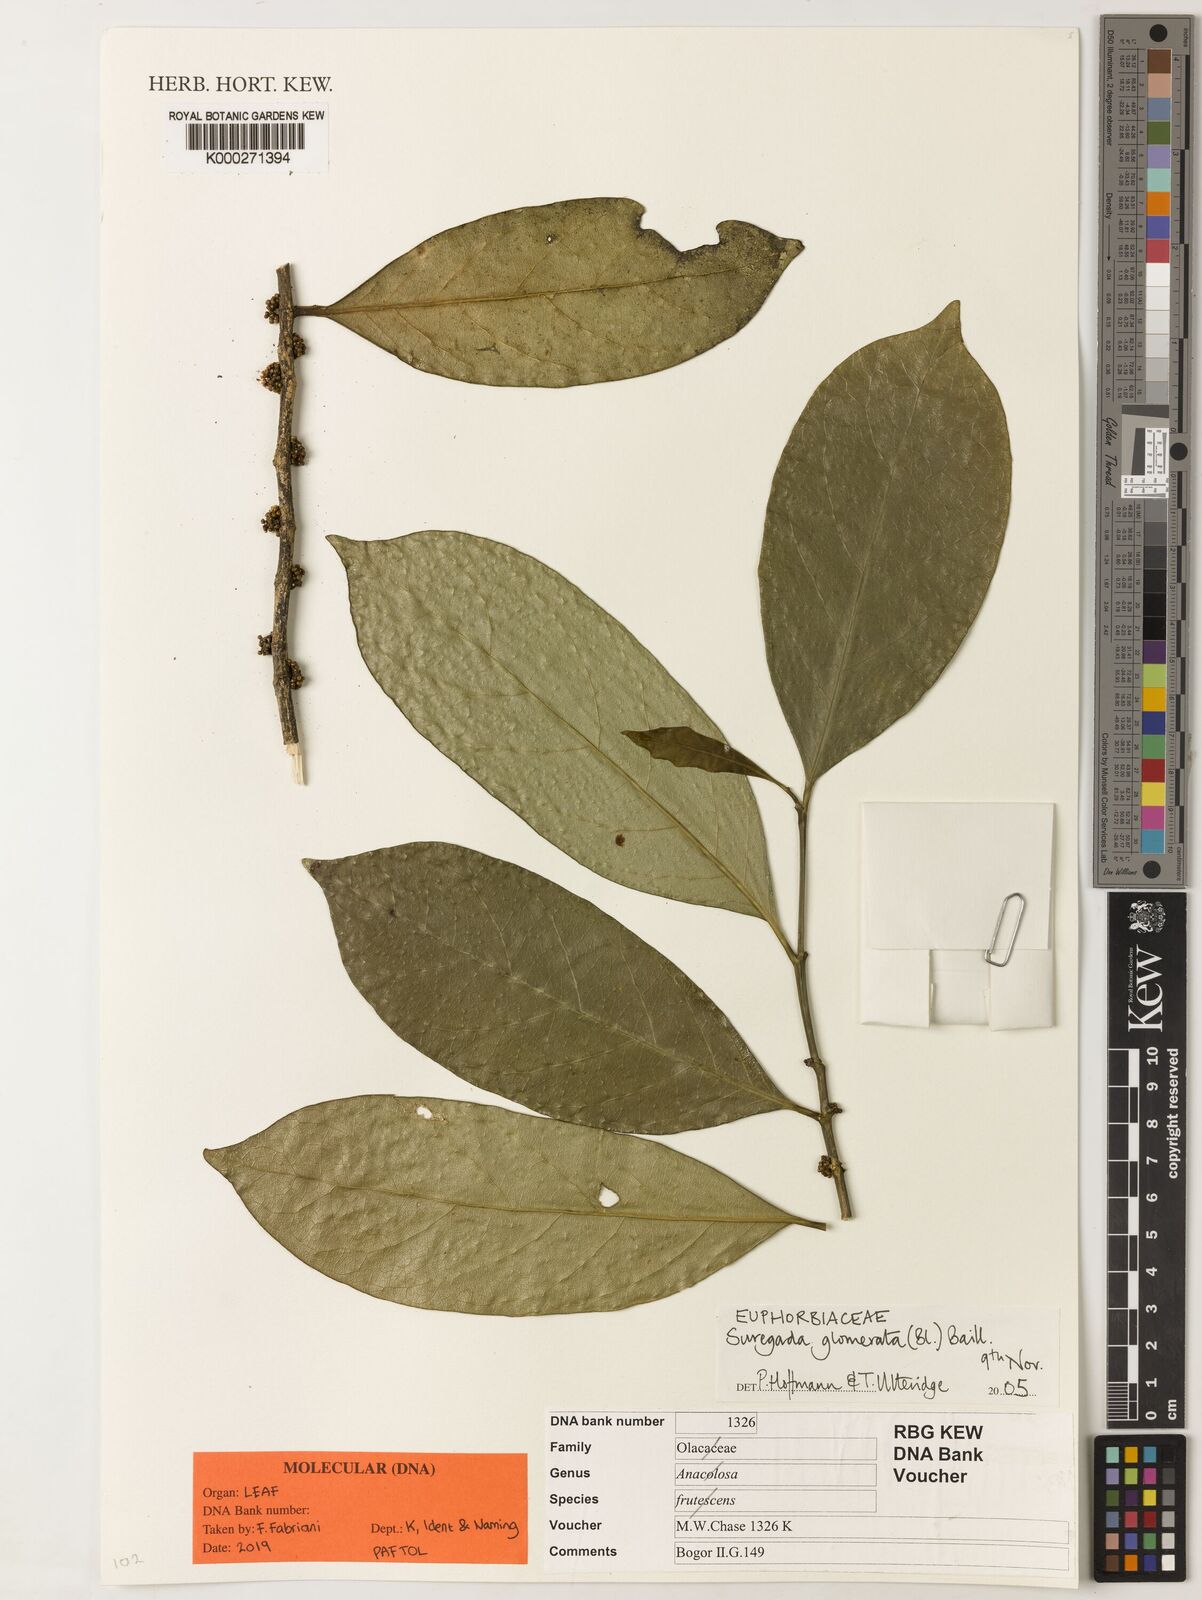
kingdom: Plantae
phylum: Tracheophyta
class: Magnoliopsida
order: Malpighiales
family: Euphorbiaceae
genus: Suregada
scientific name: Suregada
